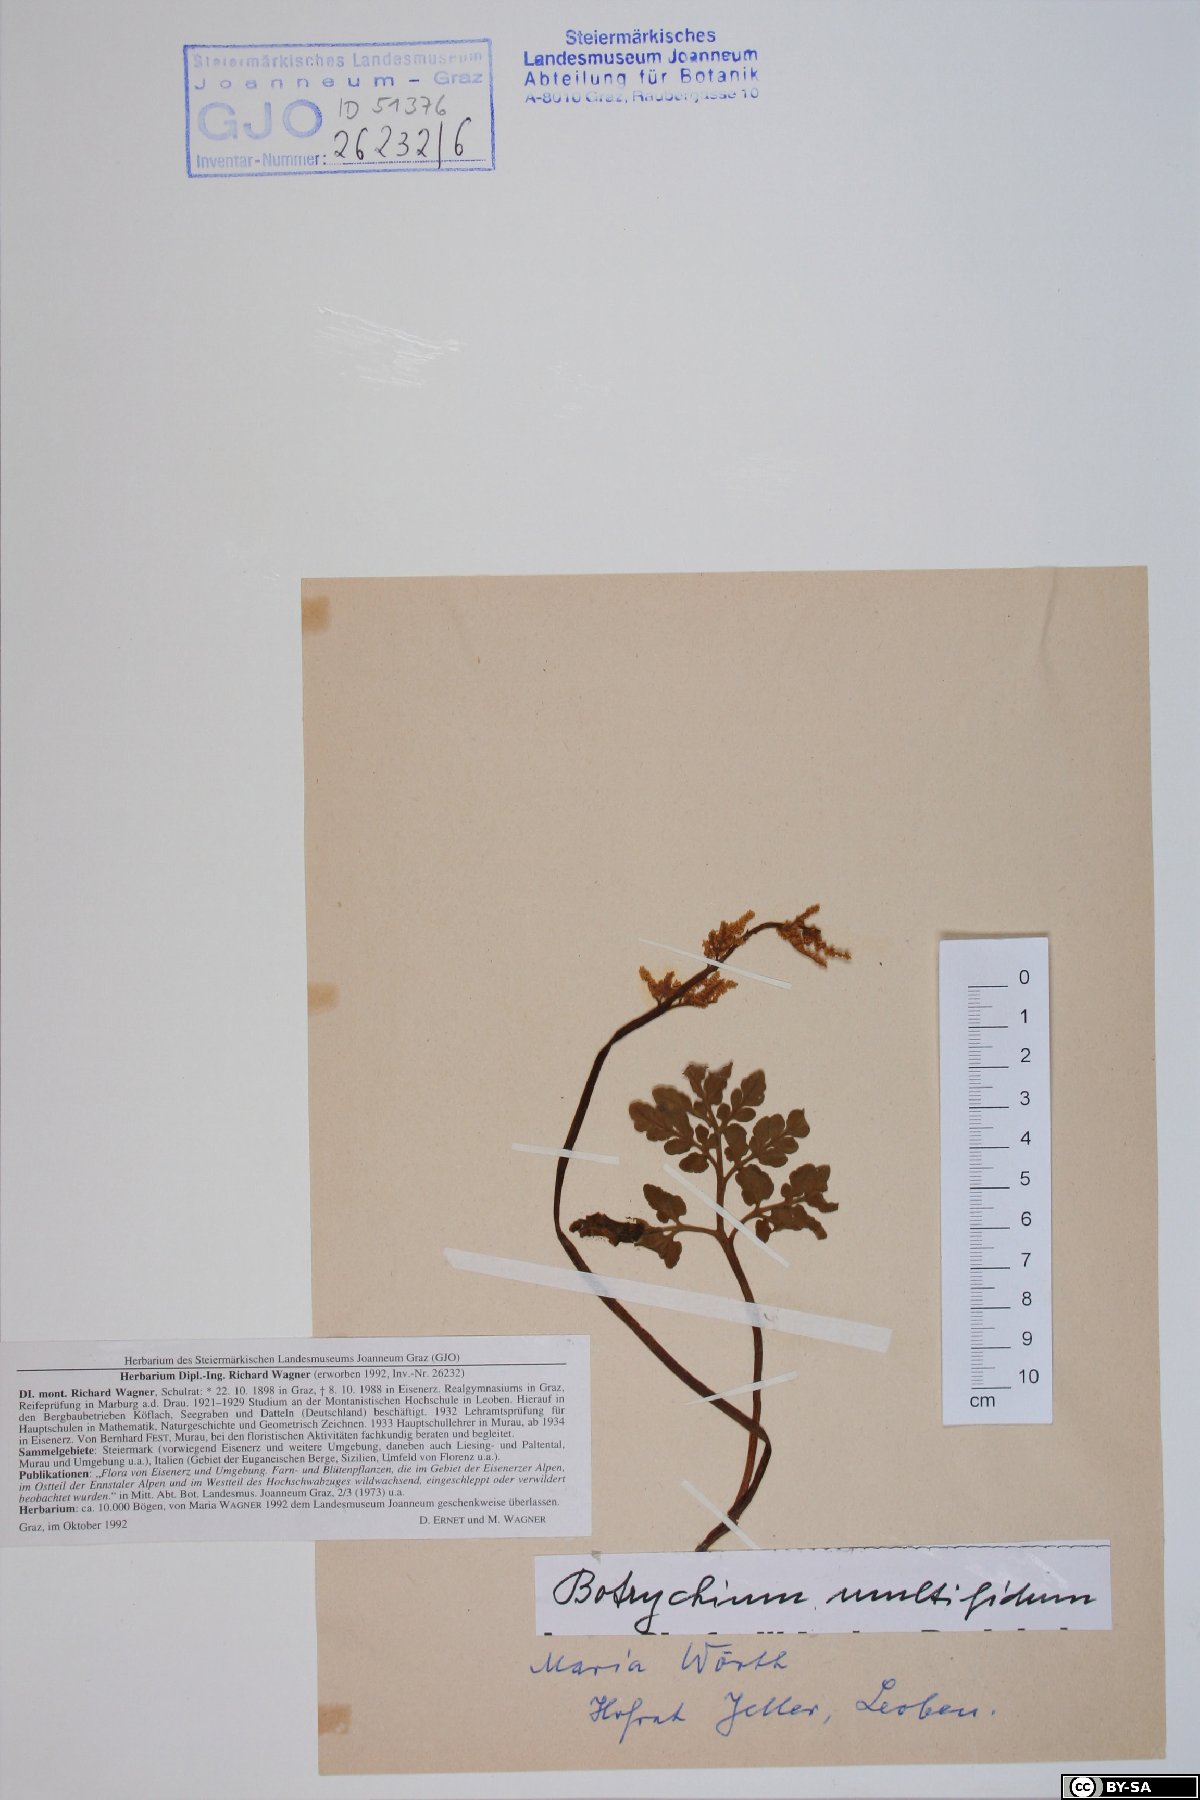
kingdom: Plantae
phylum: Tracheophyta
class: Polypodiopsida
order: Ophioglossales
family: Ophioglossaceae
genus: Sceptridium
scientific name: Sceptridium multifidum
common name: Leathery grape fern
